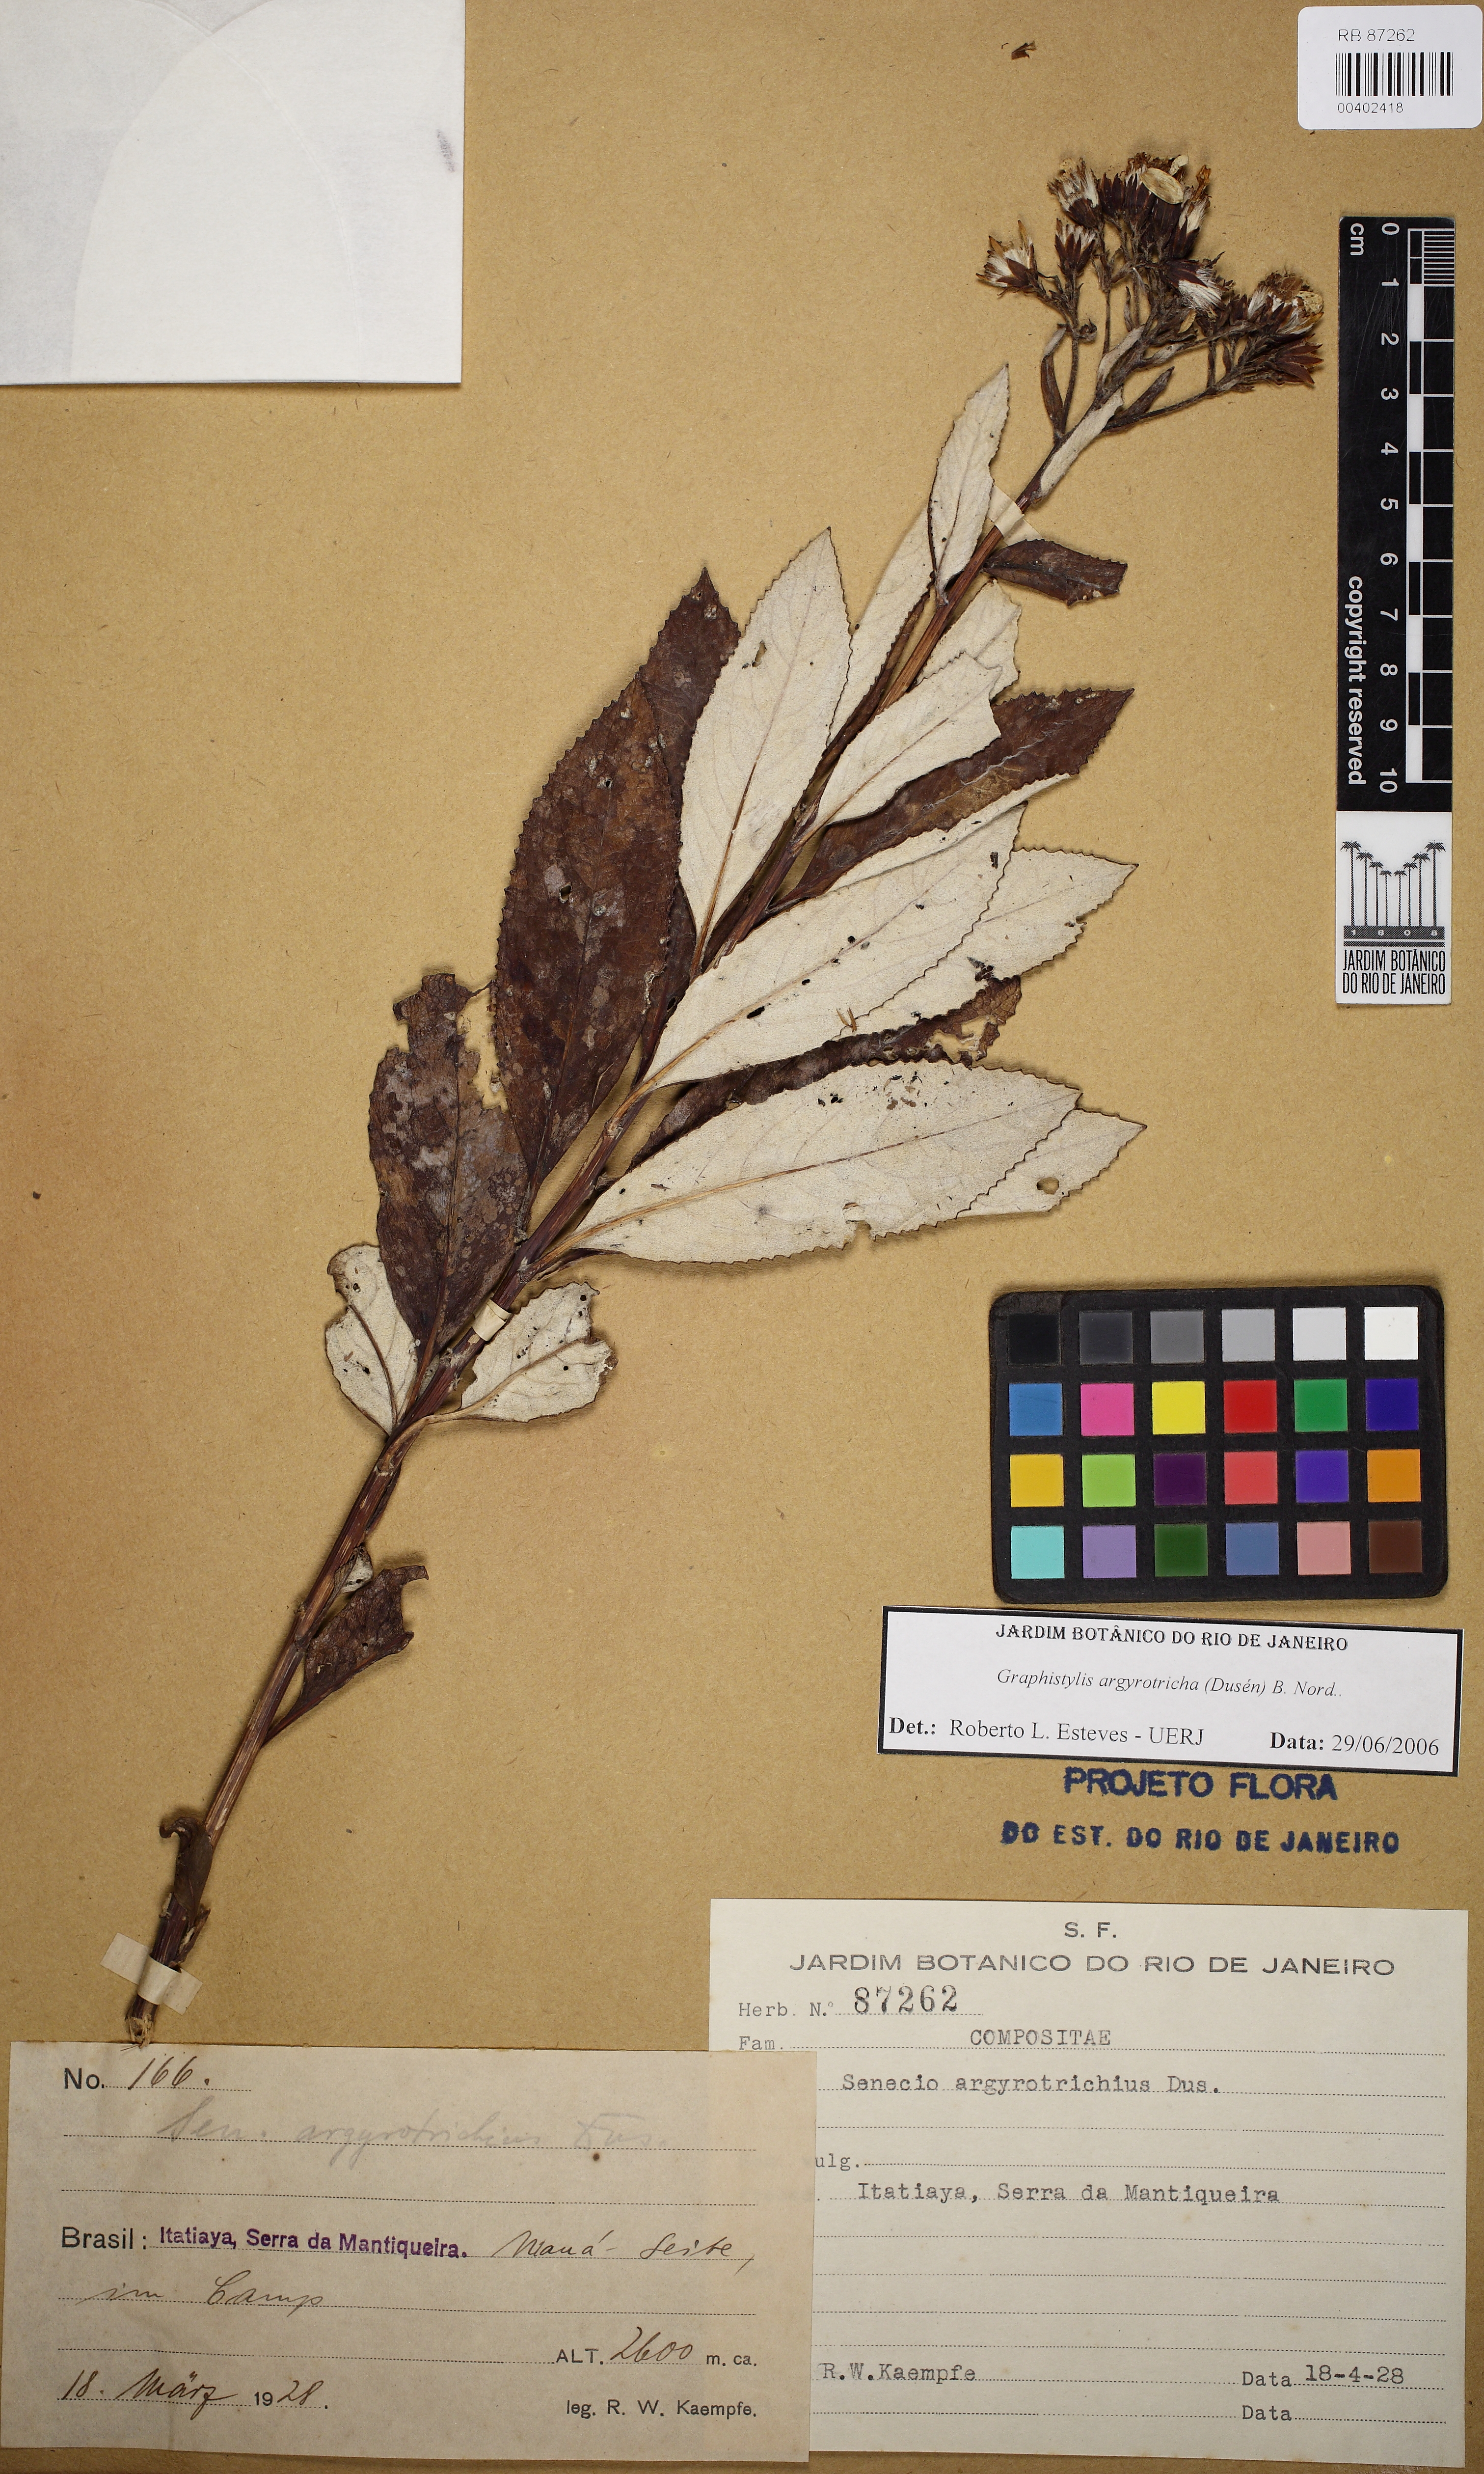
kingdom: Plantae
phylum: Tracheophyta
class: Magnoliopsida
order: Asterales
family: Asteraceae
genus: Graphistylis
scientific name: Graphistylis argyrotricha
